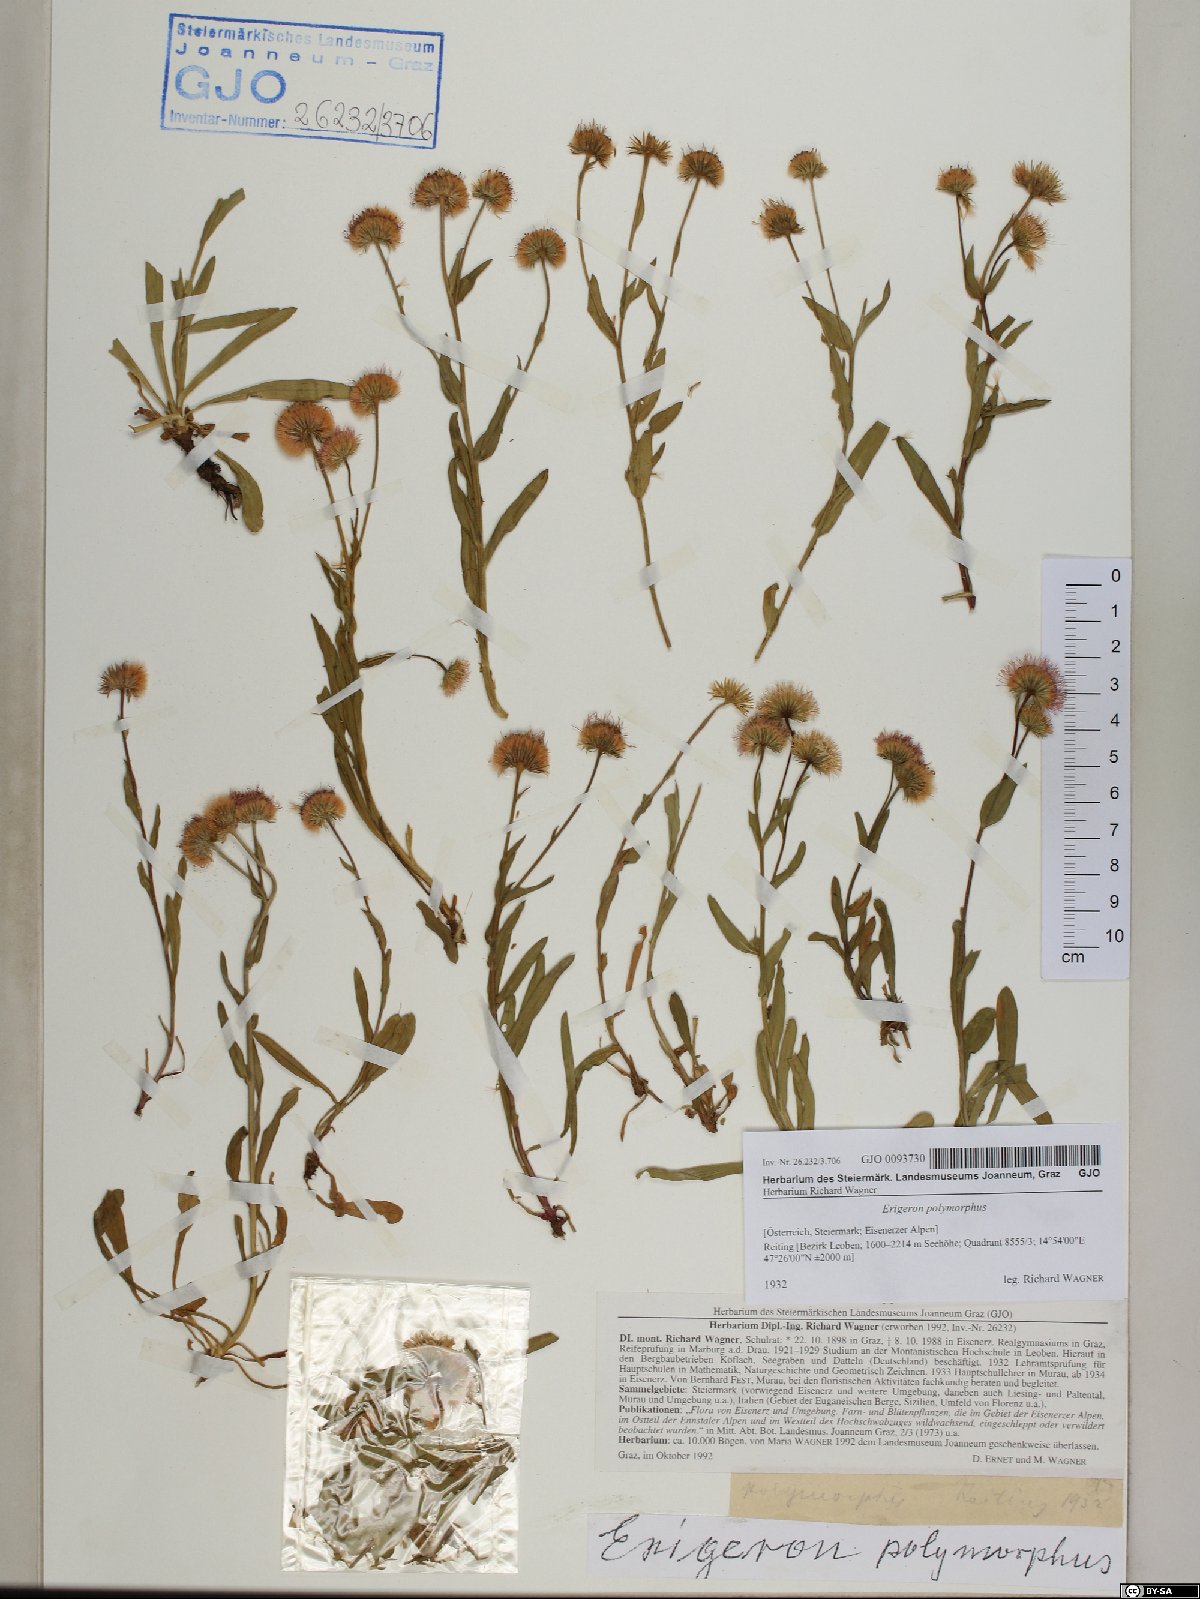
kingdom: Plantae
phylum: Tracheophyta
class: Magnoliopsida
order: Asterales
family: Asteraceae
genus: Erigeron
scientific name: Erigeron alpinus
